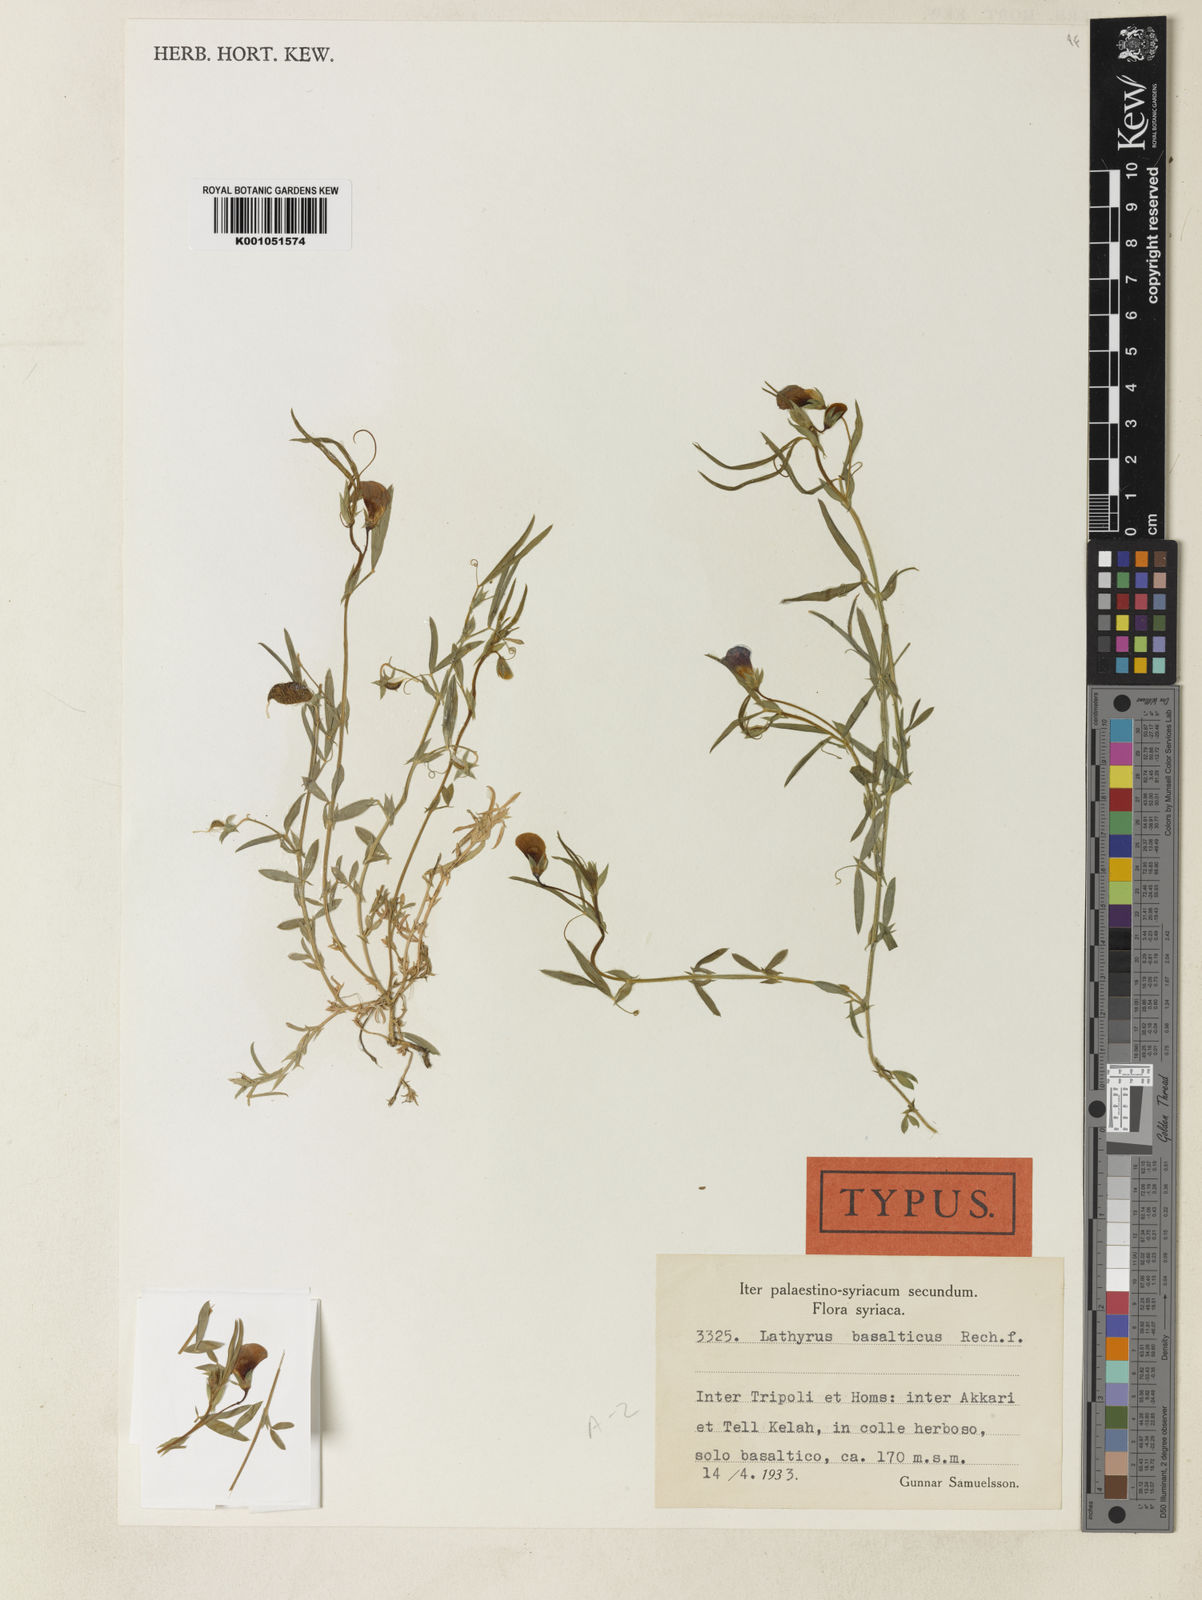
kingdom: Plantae
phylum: Tracheophyta
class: Magnoliopsida
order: Fabales
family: Fabaceae
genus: Lathyrus
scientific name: Lathyrus basalticus
